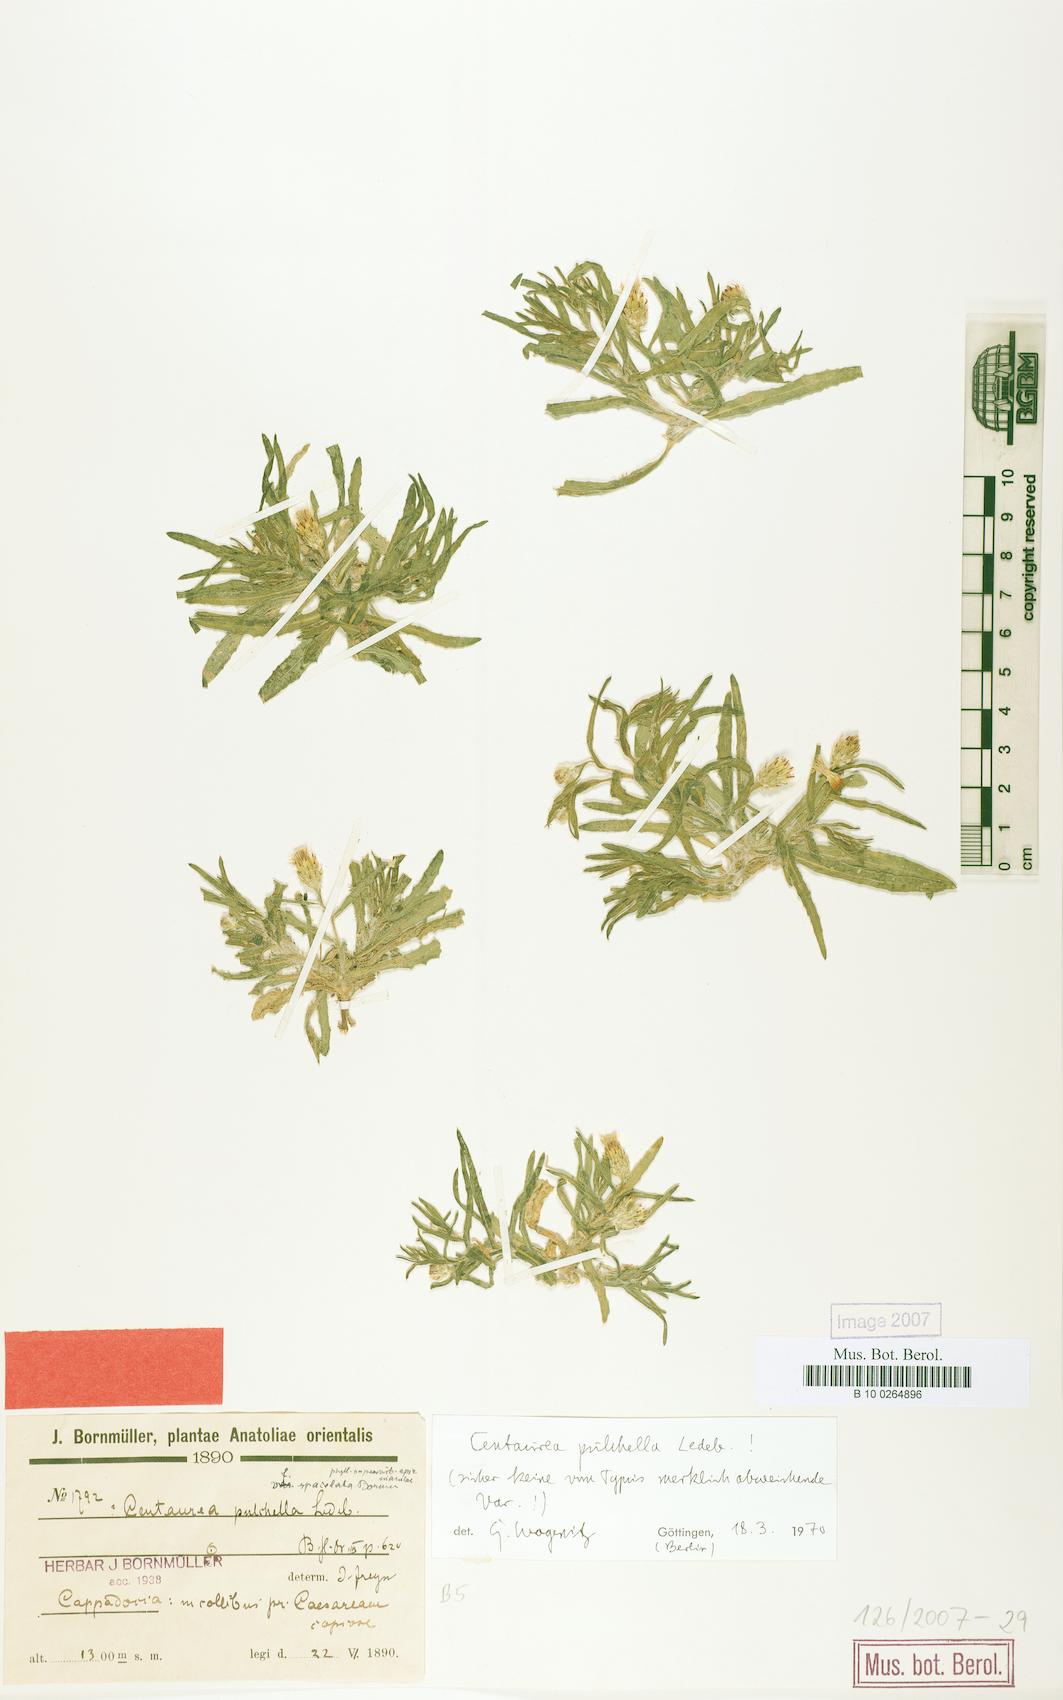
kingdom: Plantae
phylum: Tracheophyta
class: Magnoliopsida
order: Asterales
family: Asteraceae
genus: Centaurea
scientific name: Centaurea pulchella
